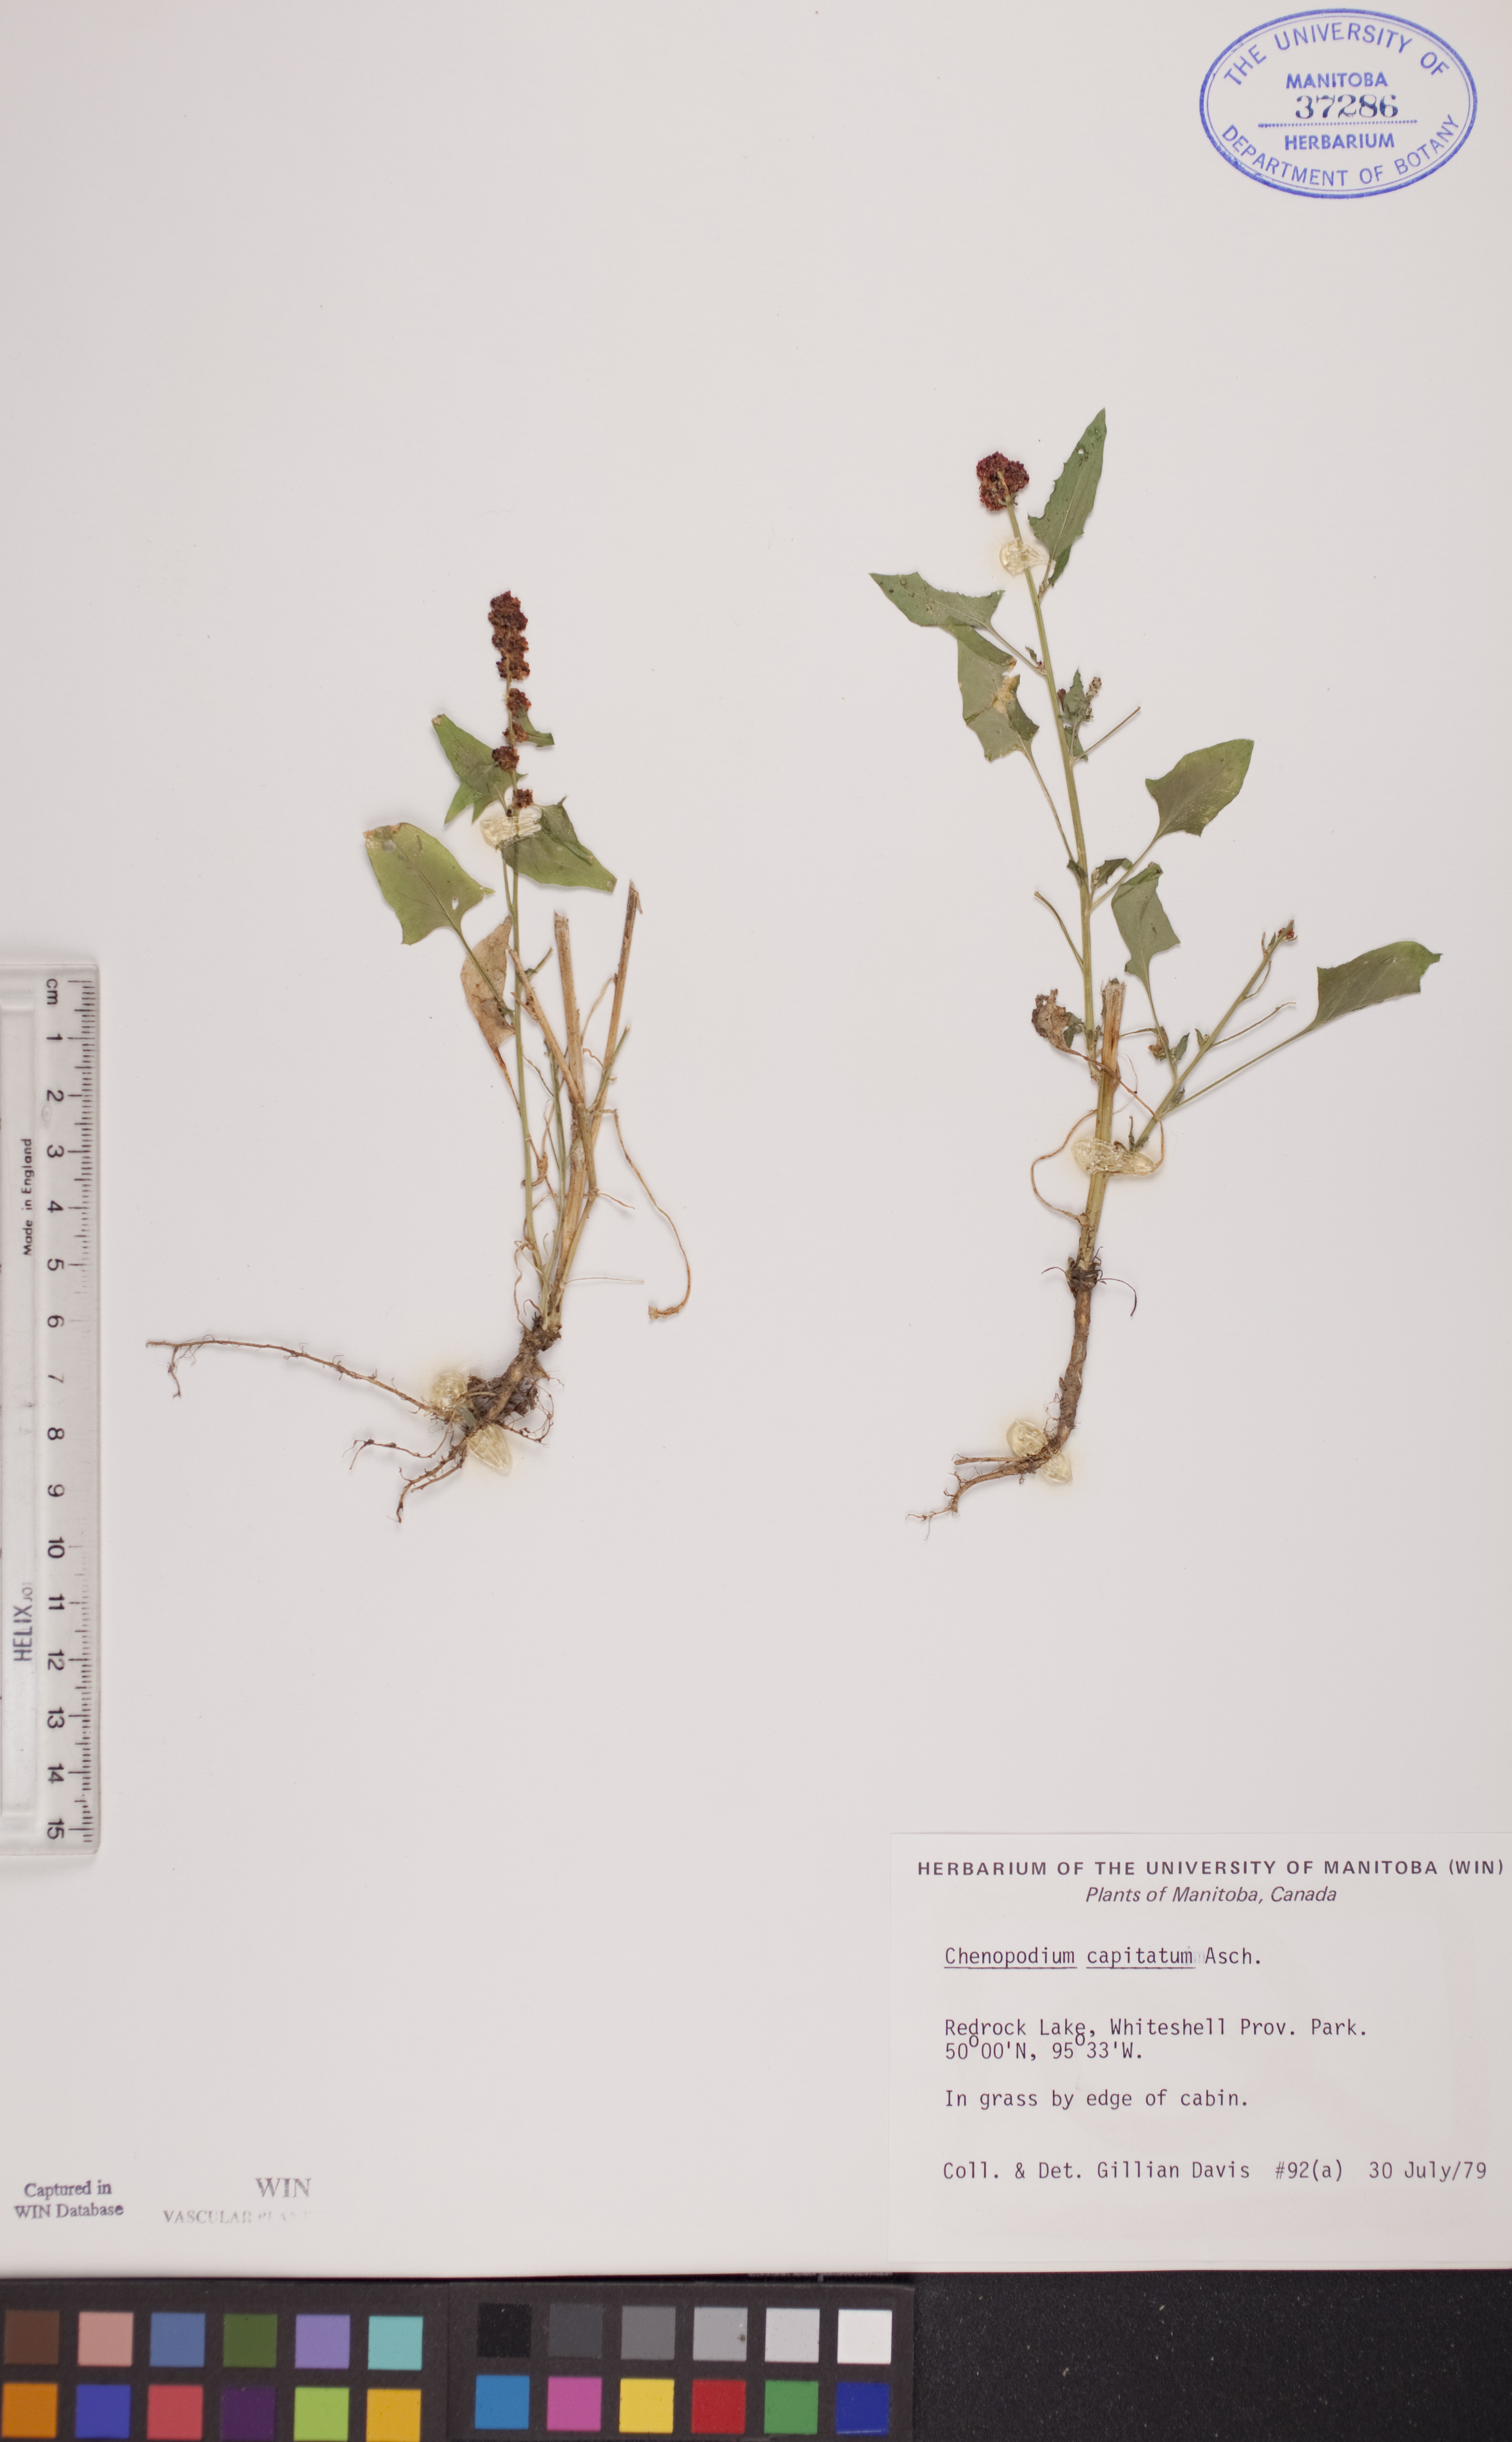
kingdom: Plantae
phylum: Tracheophyta
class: Magnoliopsida
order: Caryophyllales
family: Amaranthaceae
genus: Blitum
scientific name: Blitum capitatum
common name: Strawberry-blight
